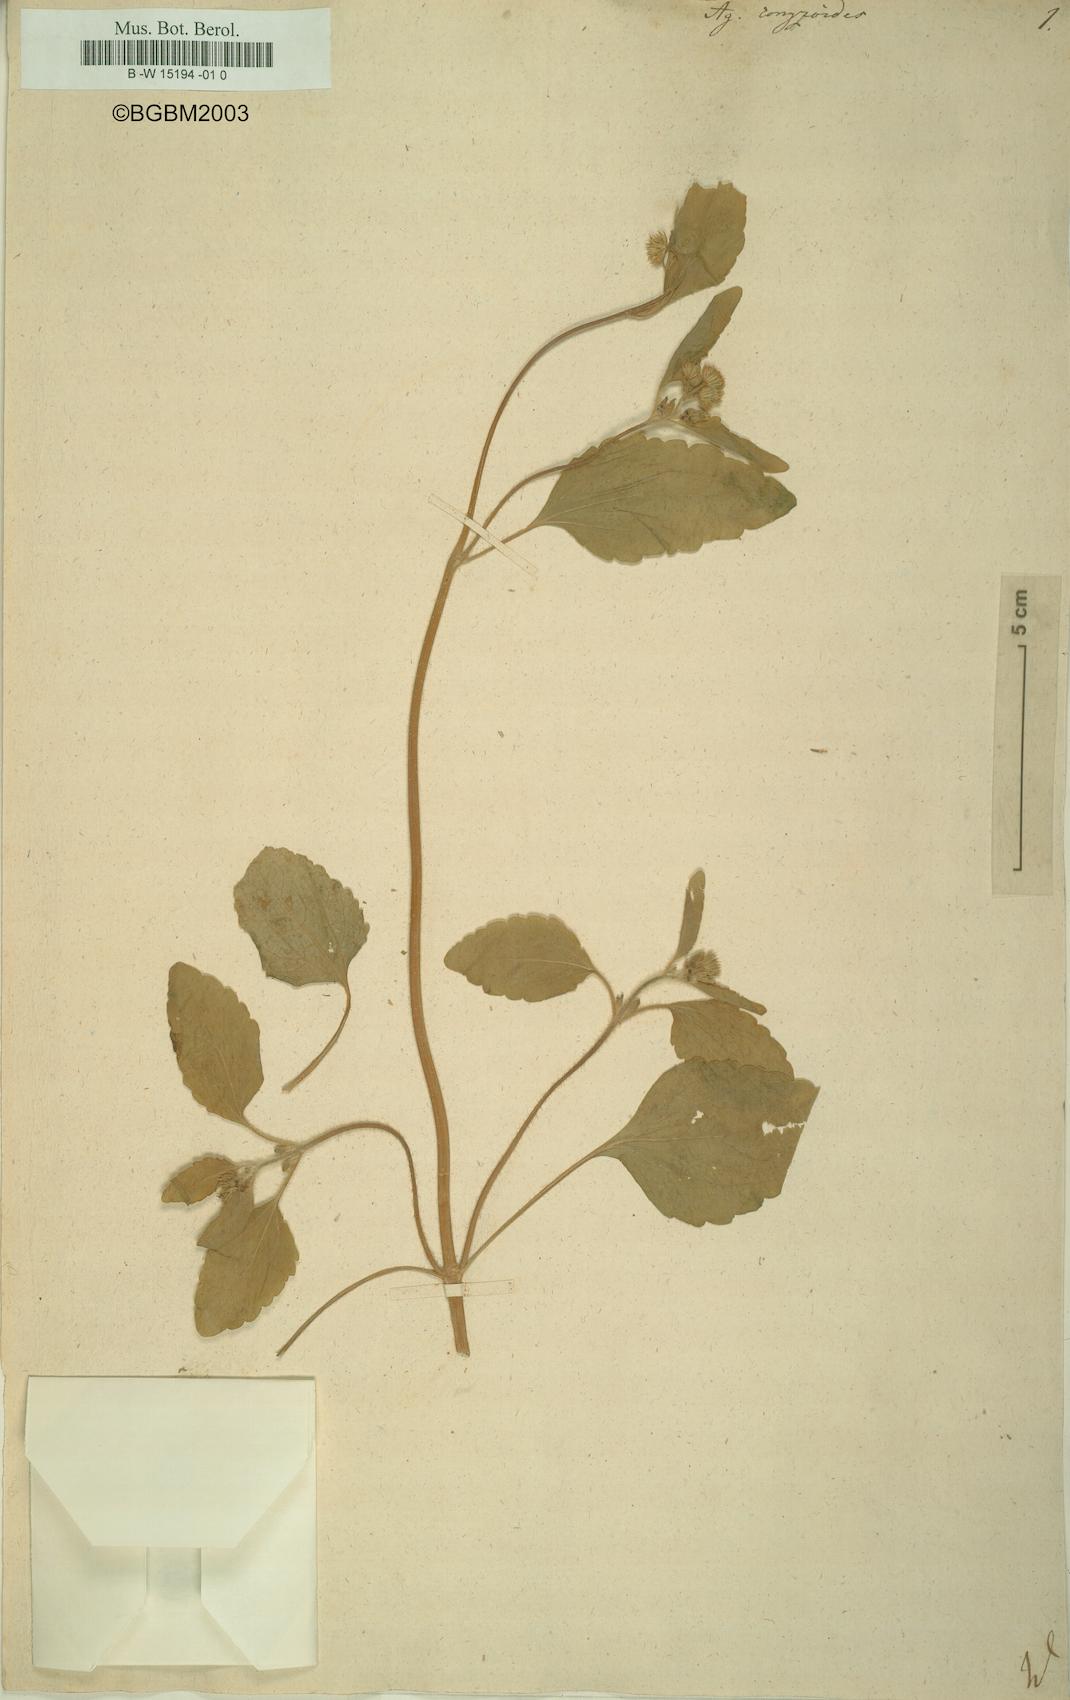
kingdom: Plantae
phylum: Tracheophyta
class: Magnoliopsida
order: Asterales
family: Asteraceae
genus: Ageratum
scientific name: Ageratum conyzoides
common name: Tropical whiteweed
